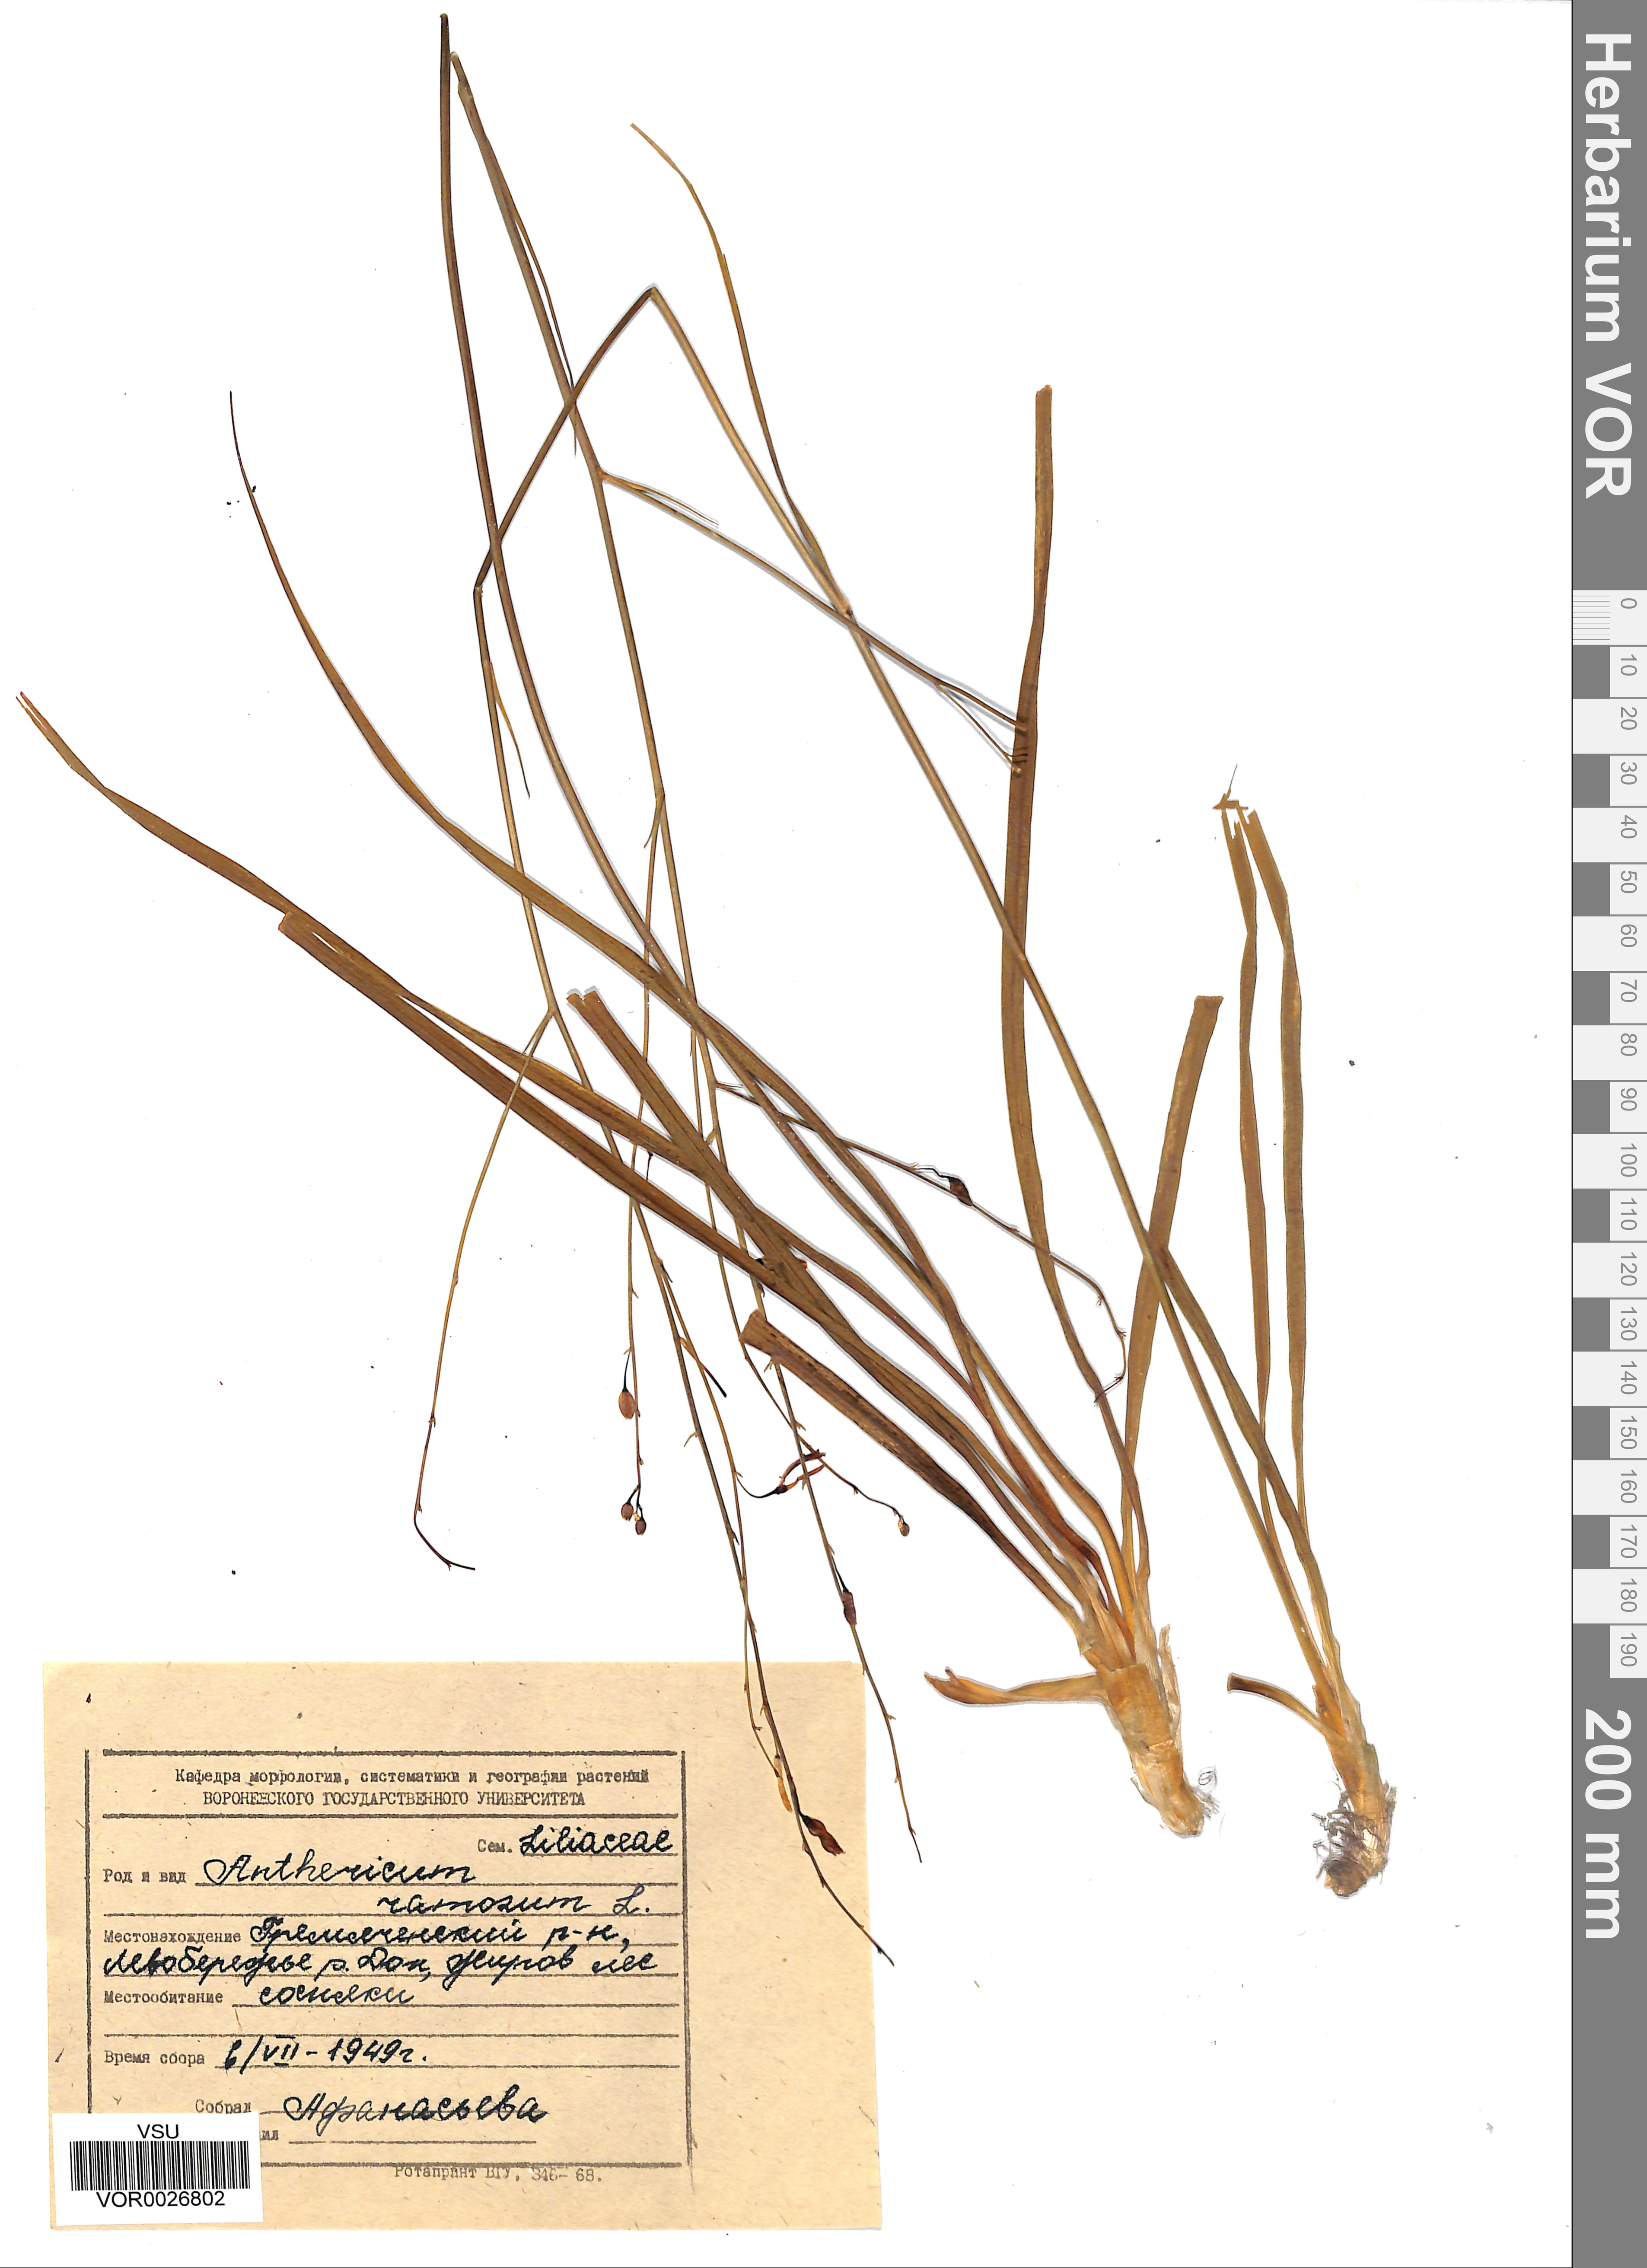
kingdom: Plantae
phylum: Tracheophyta
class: Liliopsida
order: Asparagales
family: Asparagaceae
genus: Anthericum
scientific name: Anthericum ramosum
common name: Branched st. bernard's-lily
